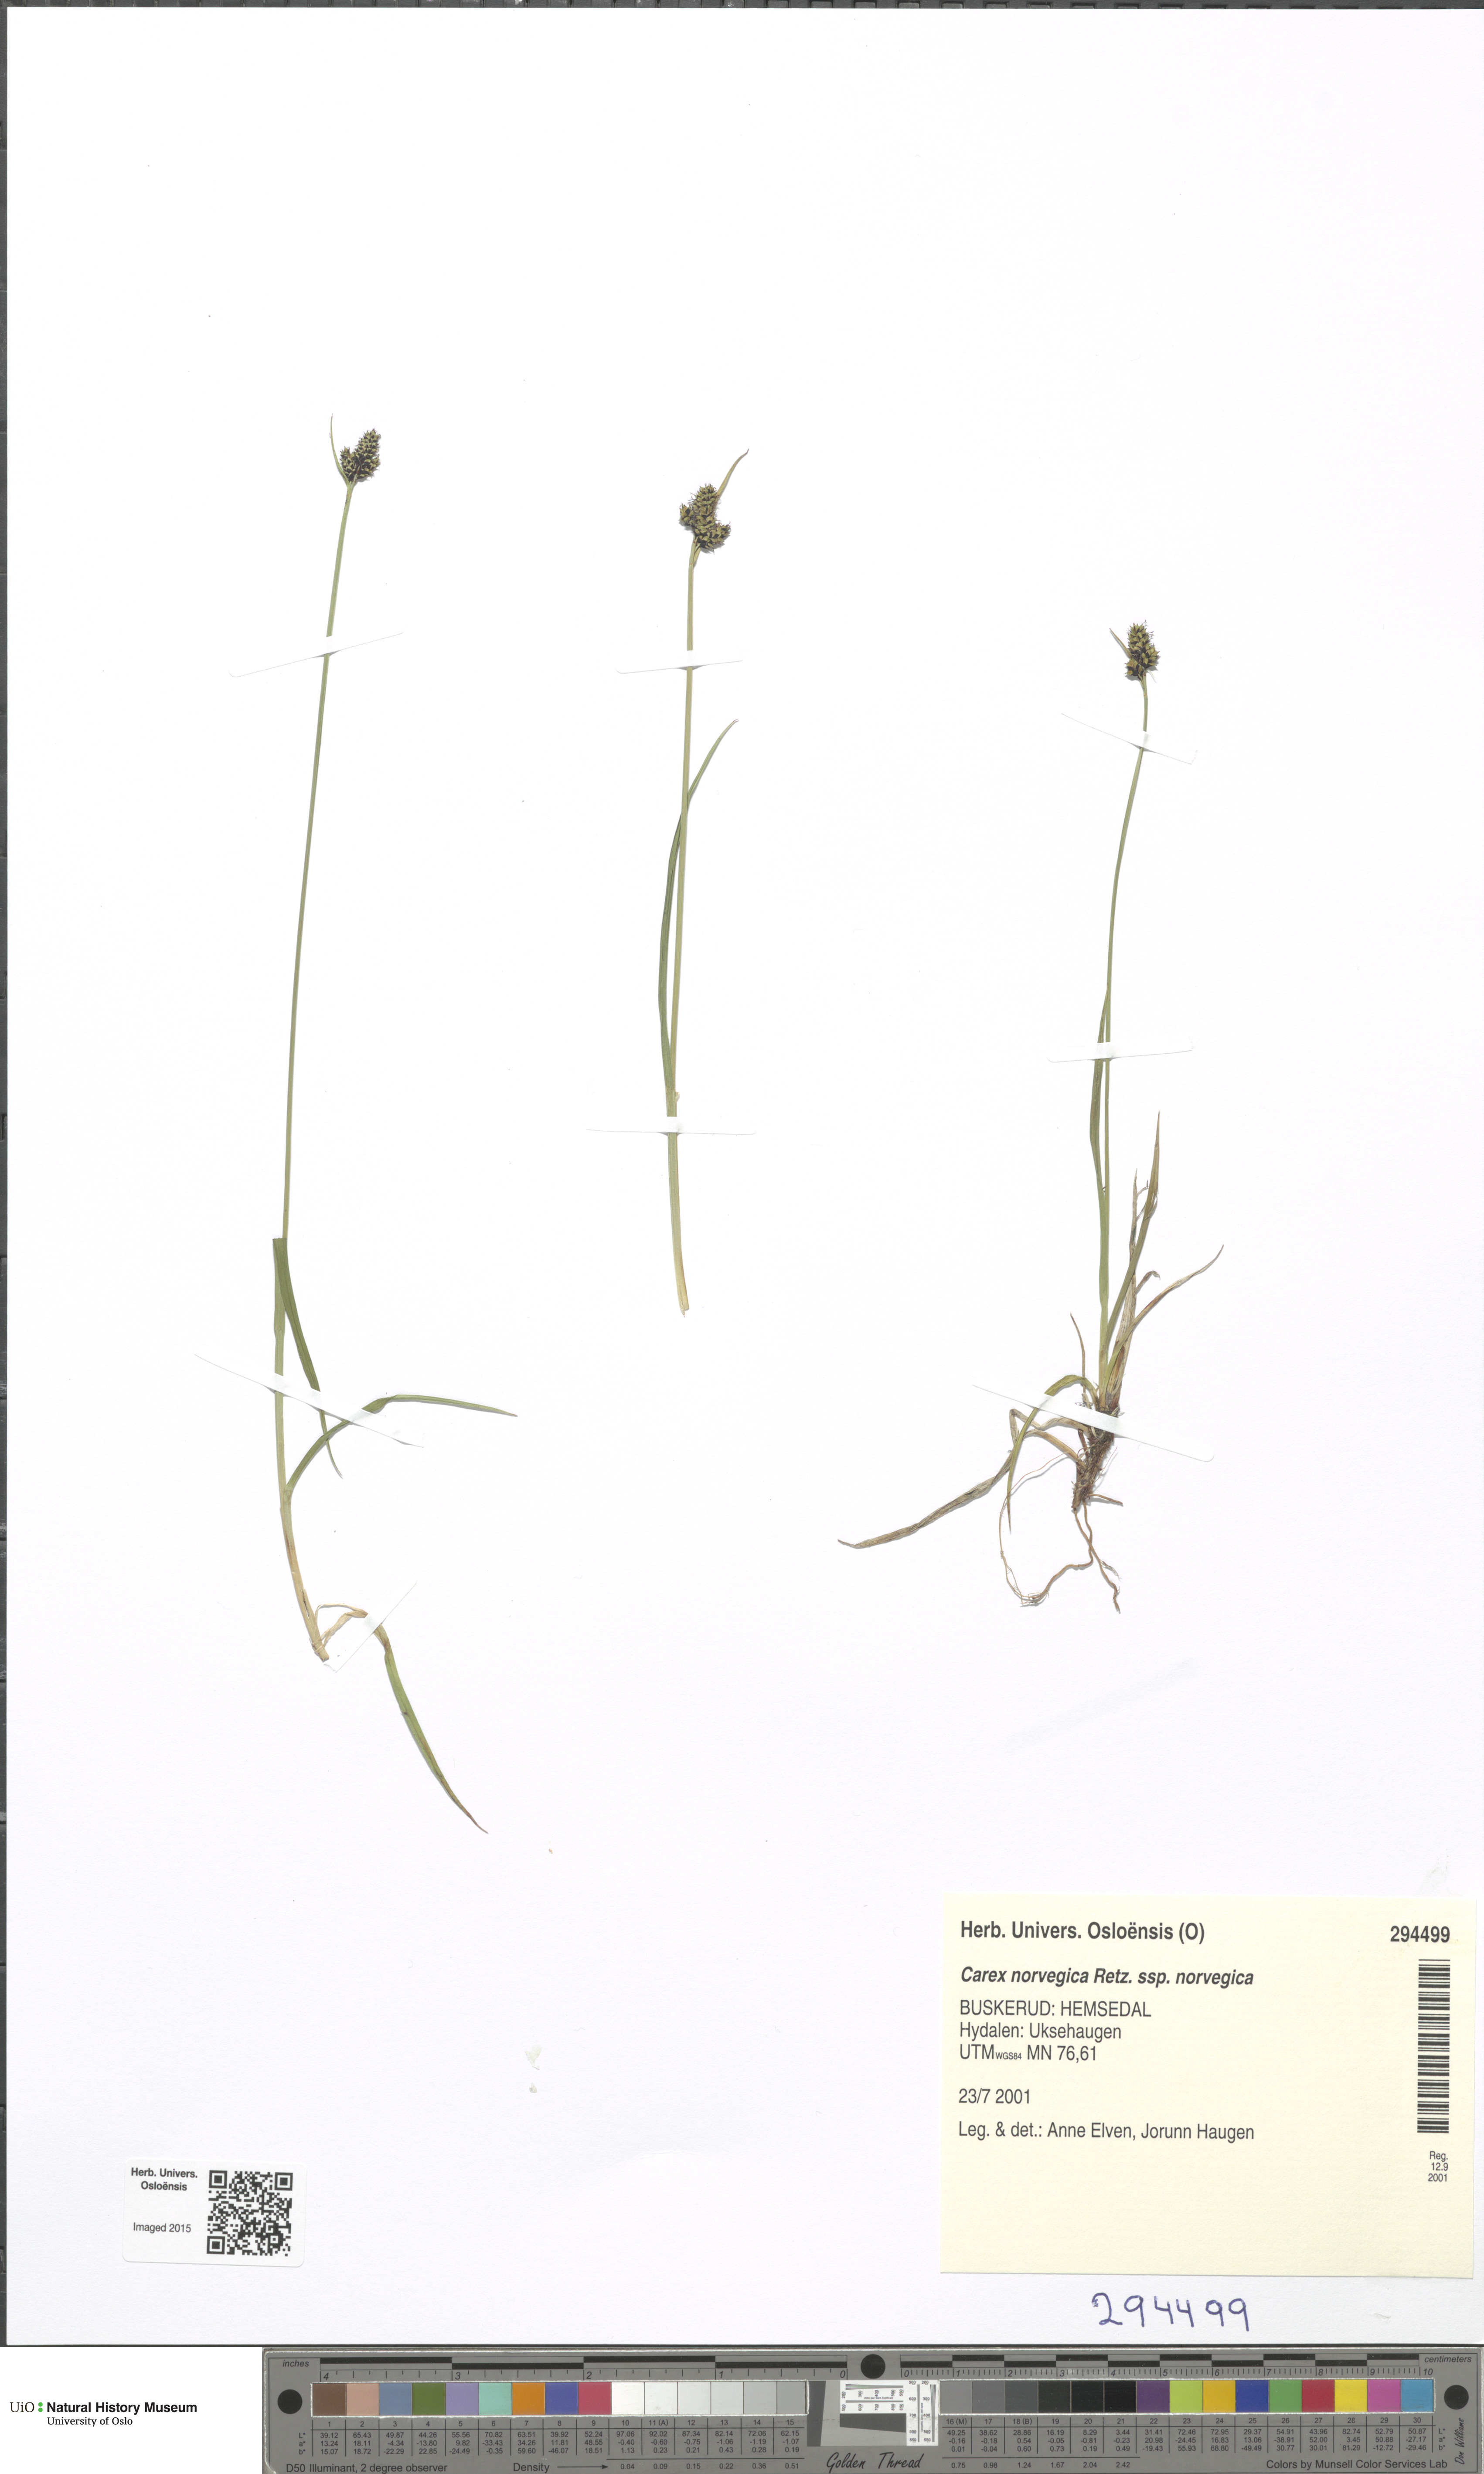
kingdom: Plantae
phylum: Tracheophyta
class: Liliopsida
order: Poales
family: Cyperaceae
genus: Carex
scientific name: Carex norvegica
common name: Close-headed alpine-sedge
